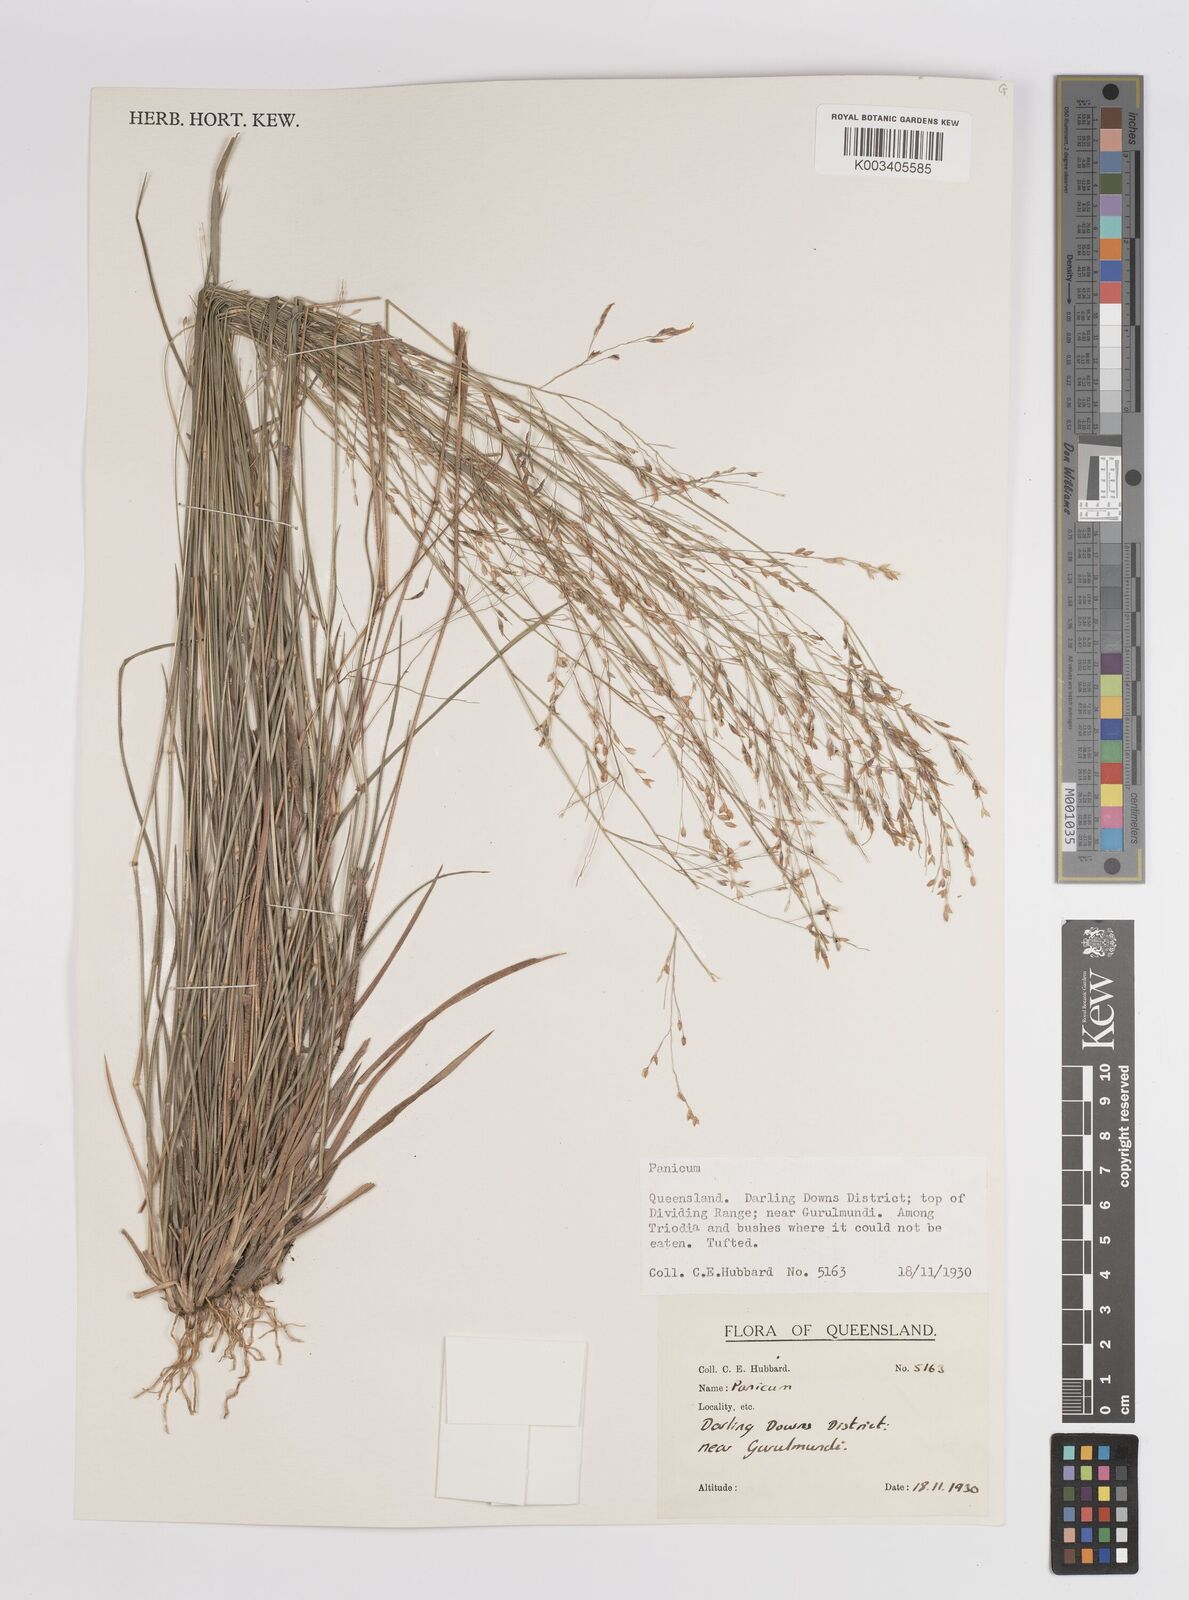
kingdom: Plantae
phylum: Tracheophyta
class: Liliopsida
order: Poales
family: Poaceae
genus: Panicum
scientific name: Panicum
